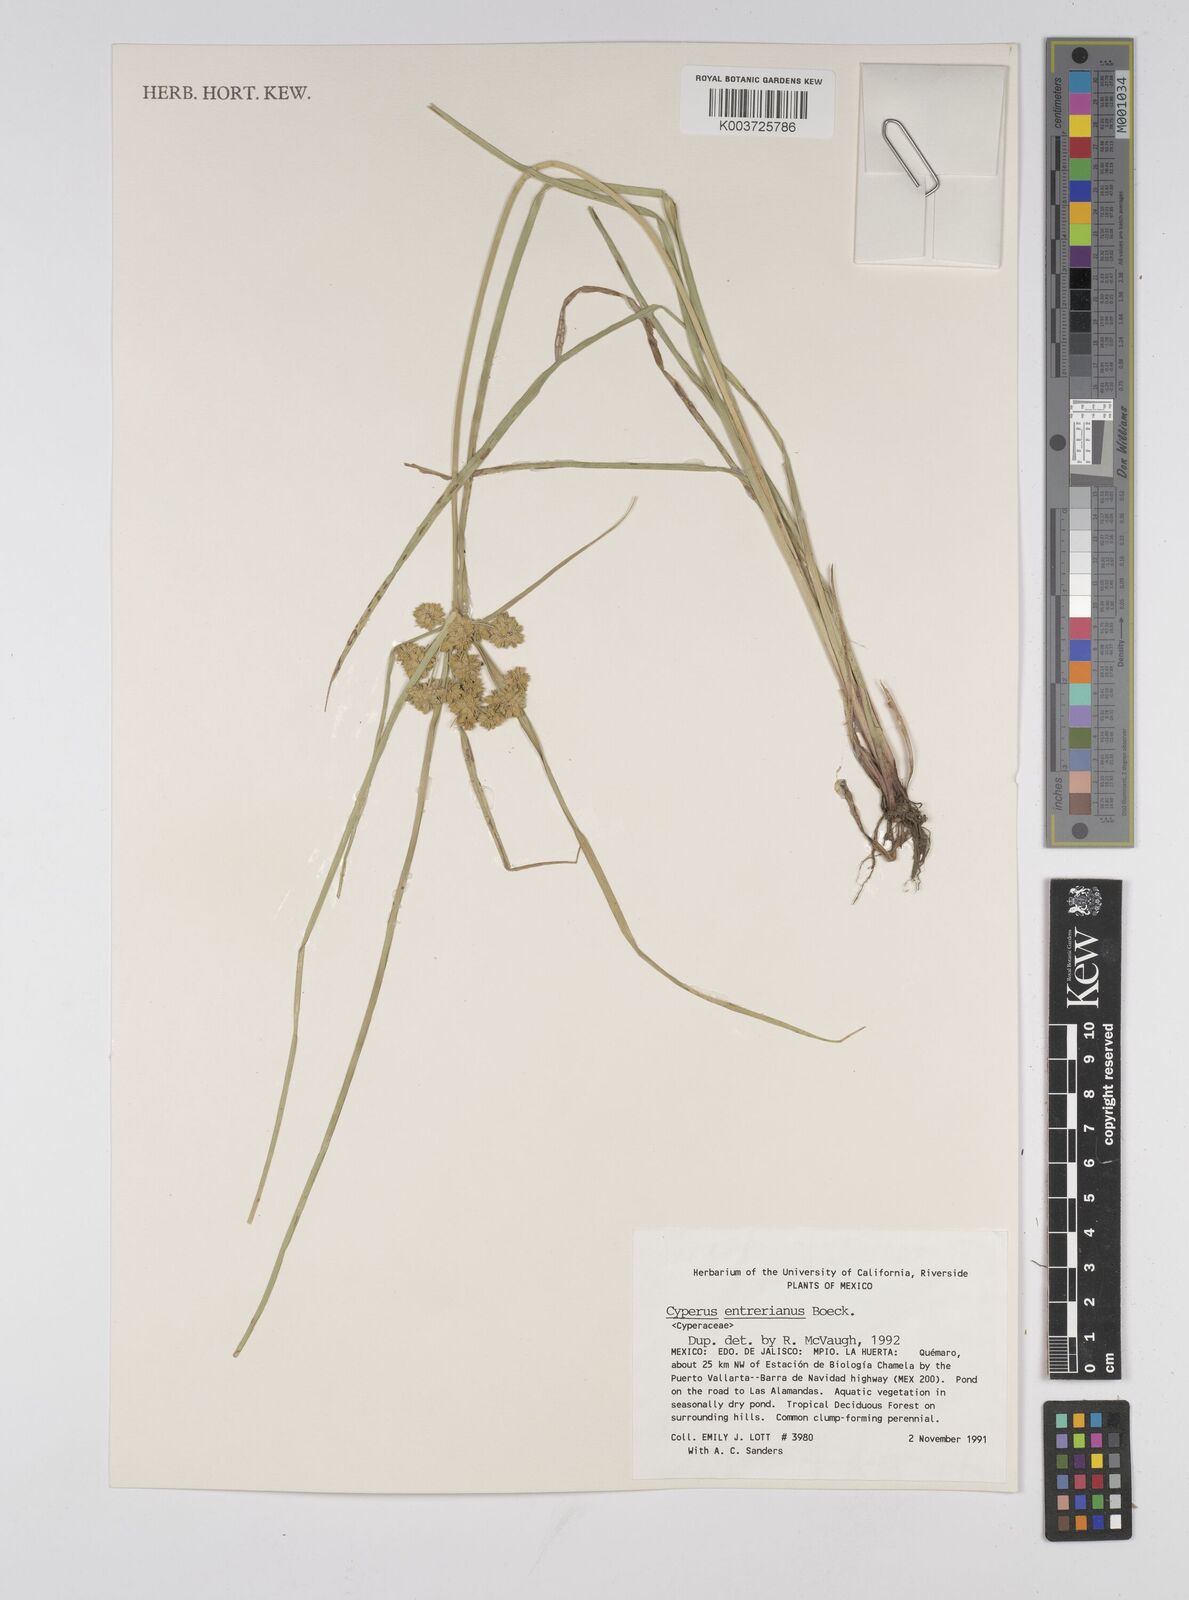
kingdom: Plantae
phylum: Tracheophyta
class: Liliopsida
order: Poales
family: Cyperaceae
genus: Cyperus
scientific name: Cyperus luzulae
